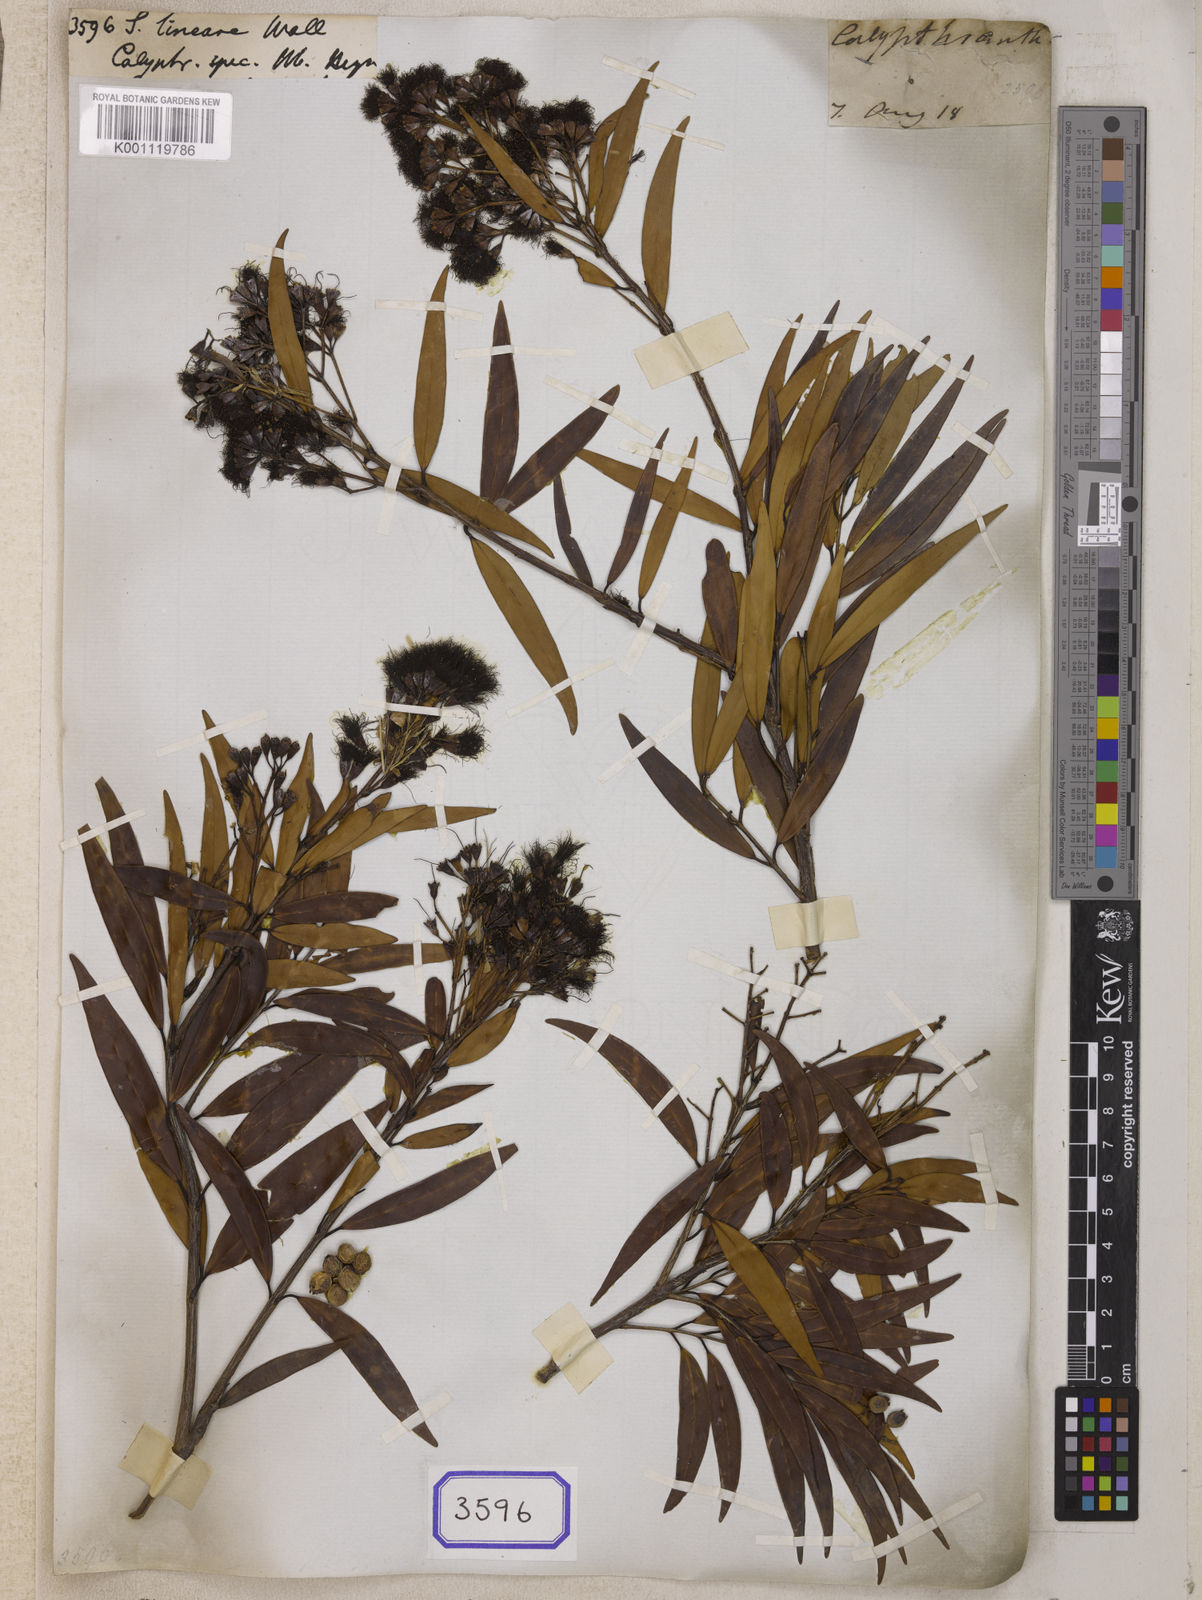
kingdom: Plantae
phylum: Tracheophyta
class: Magnoliopsida
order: Myrtales
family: Myrtaceae
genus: Syzygium
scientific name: Syzygium
